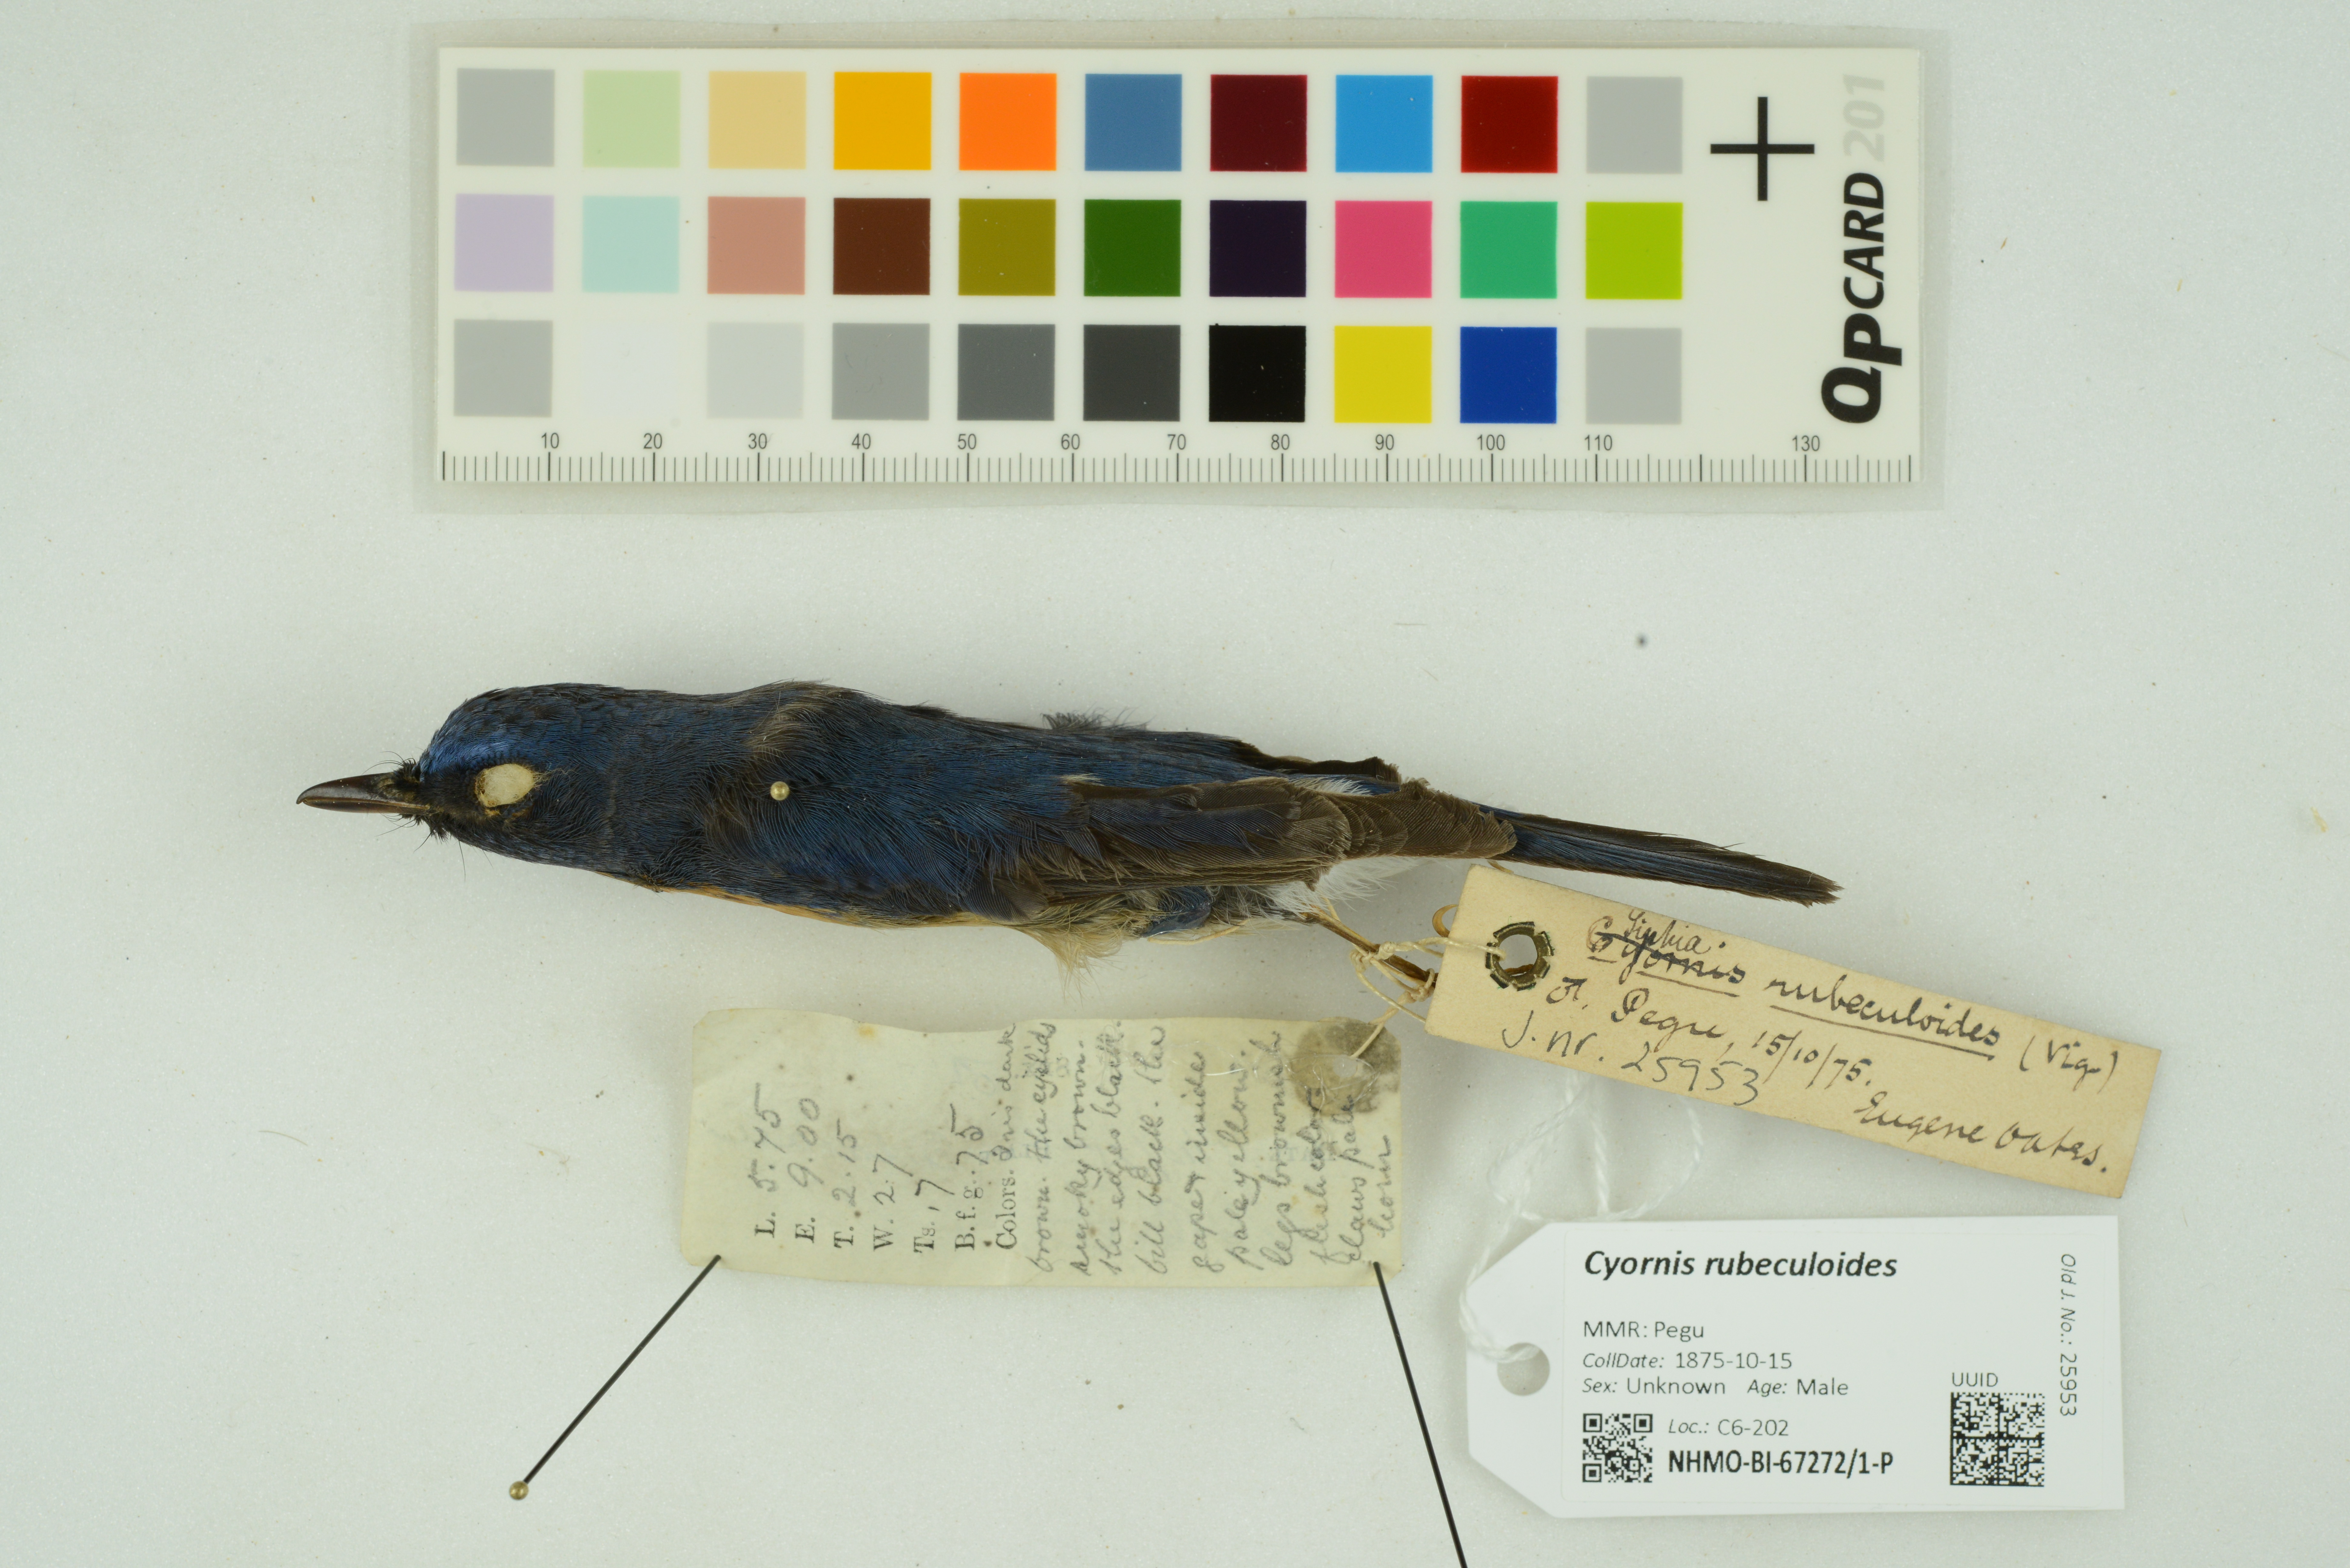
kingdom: Animalia
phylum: Chordata
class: Aves
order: Passeriformes
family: Muscicapidae
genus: Cyornis
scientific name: Cyornis rubeculoides
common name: Blue-throated blue flycatcher
